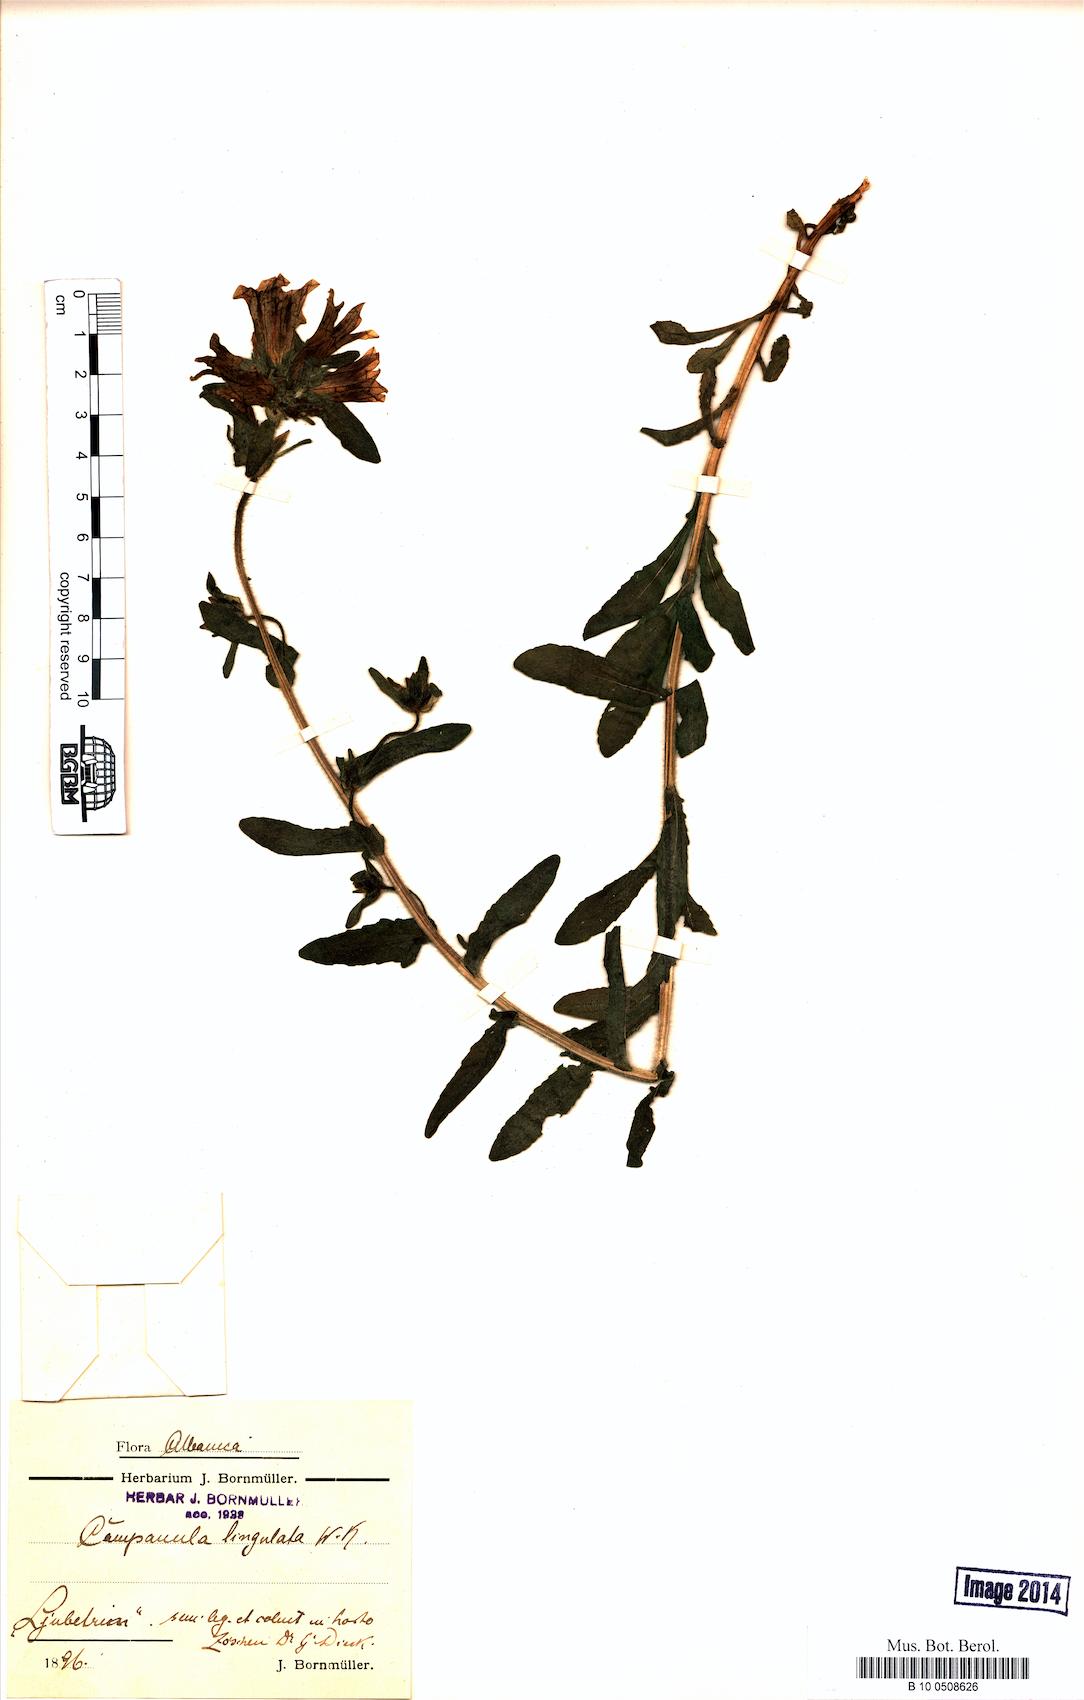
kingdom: Plantae
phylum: Tracheophyta
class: Magnoliopsida
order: Asterales
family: Campanulaceae
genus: Campanula
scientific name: Campanula lingulata
